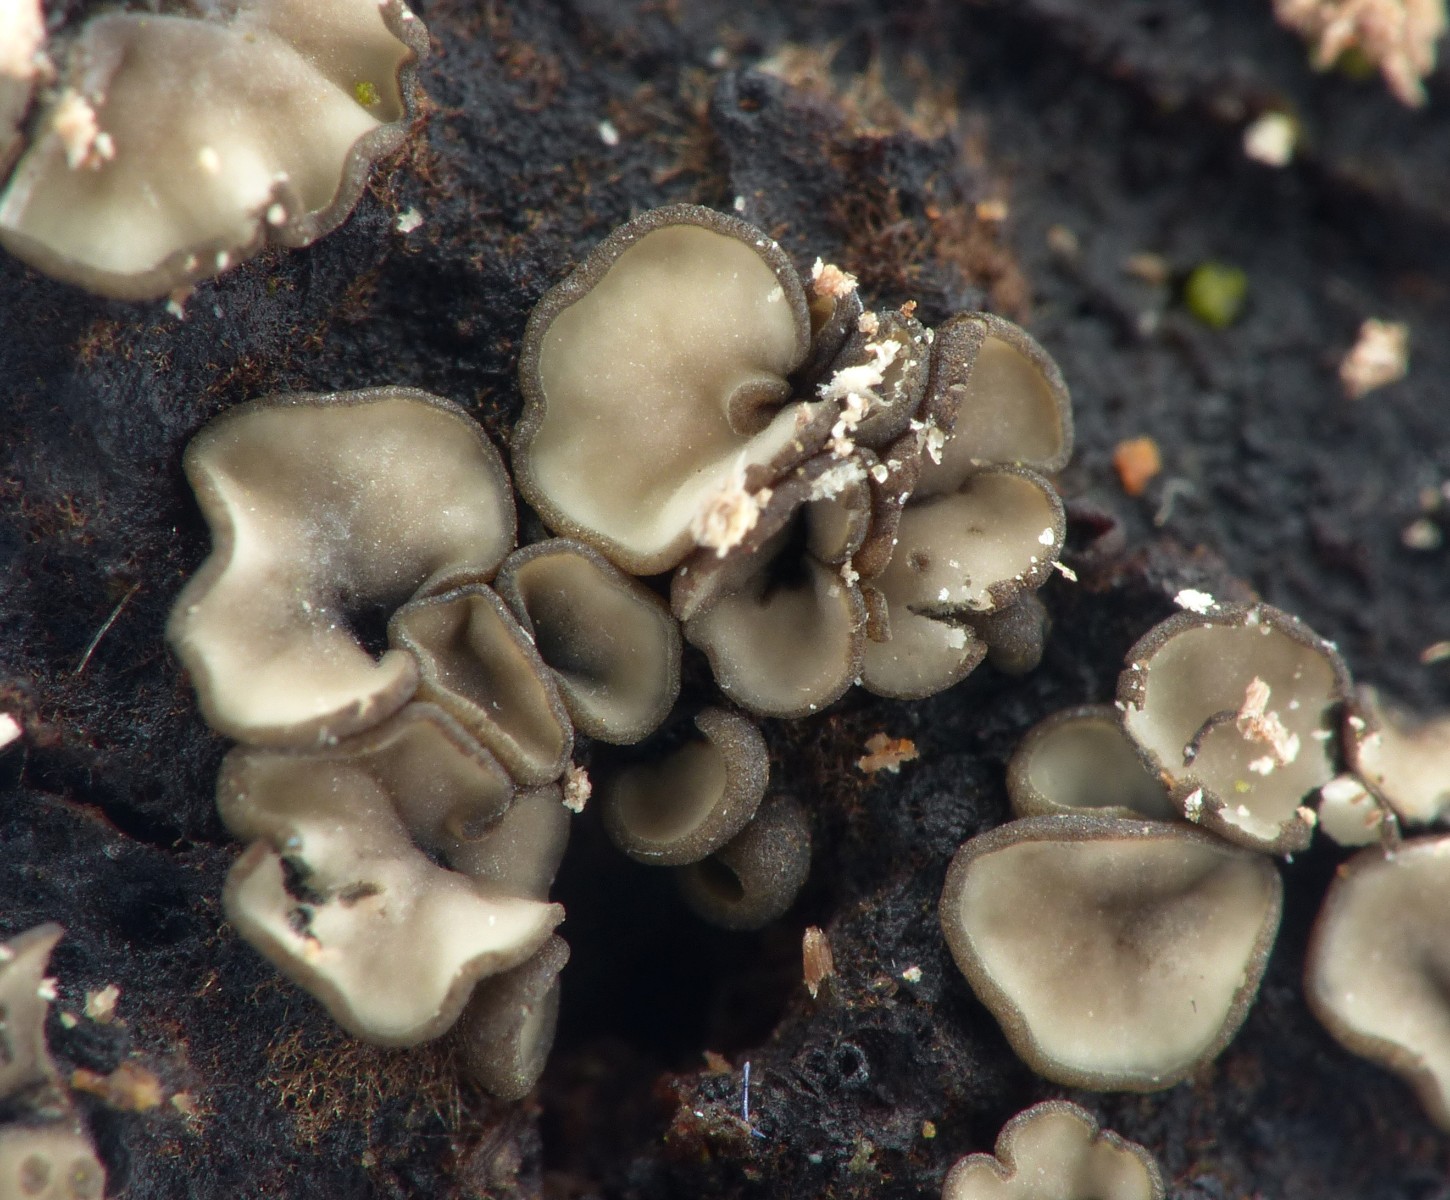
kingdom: Fungi
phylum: Ascomycota
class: Leotiomycetes
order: Helotiales
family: Mollisiaceae
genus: Mollisia
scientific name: Mollisia
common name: gråskive
